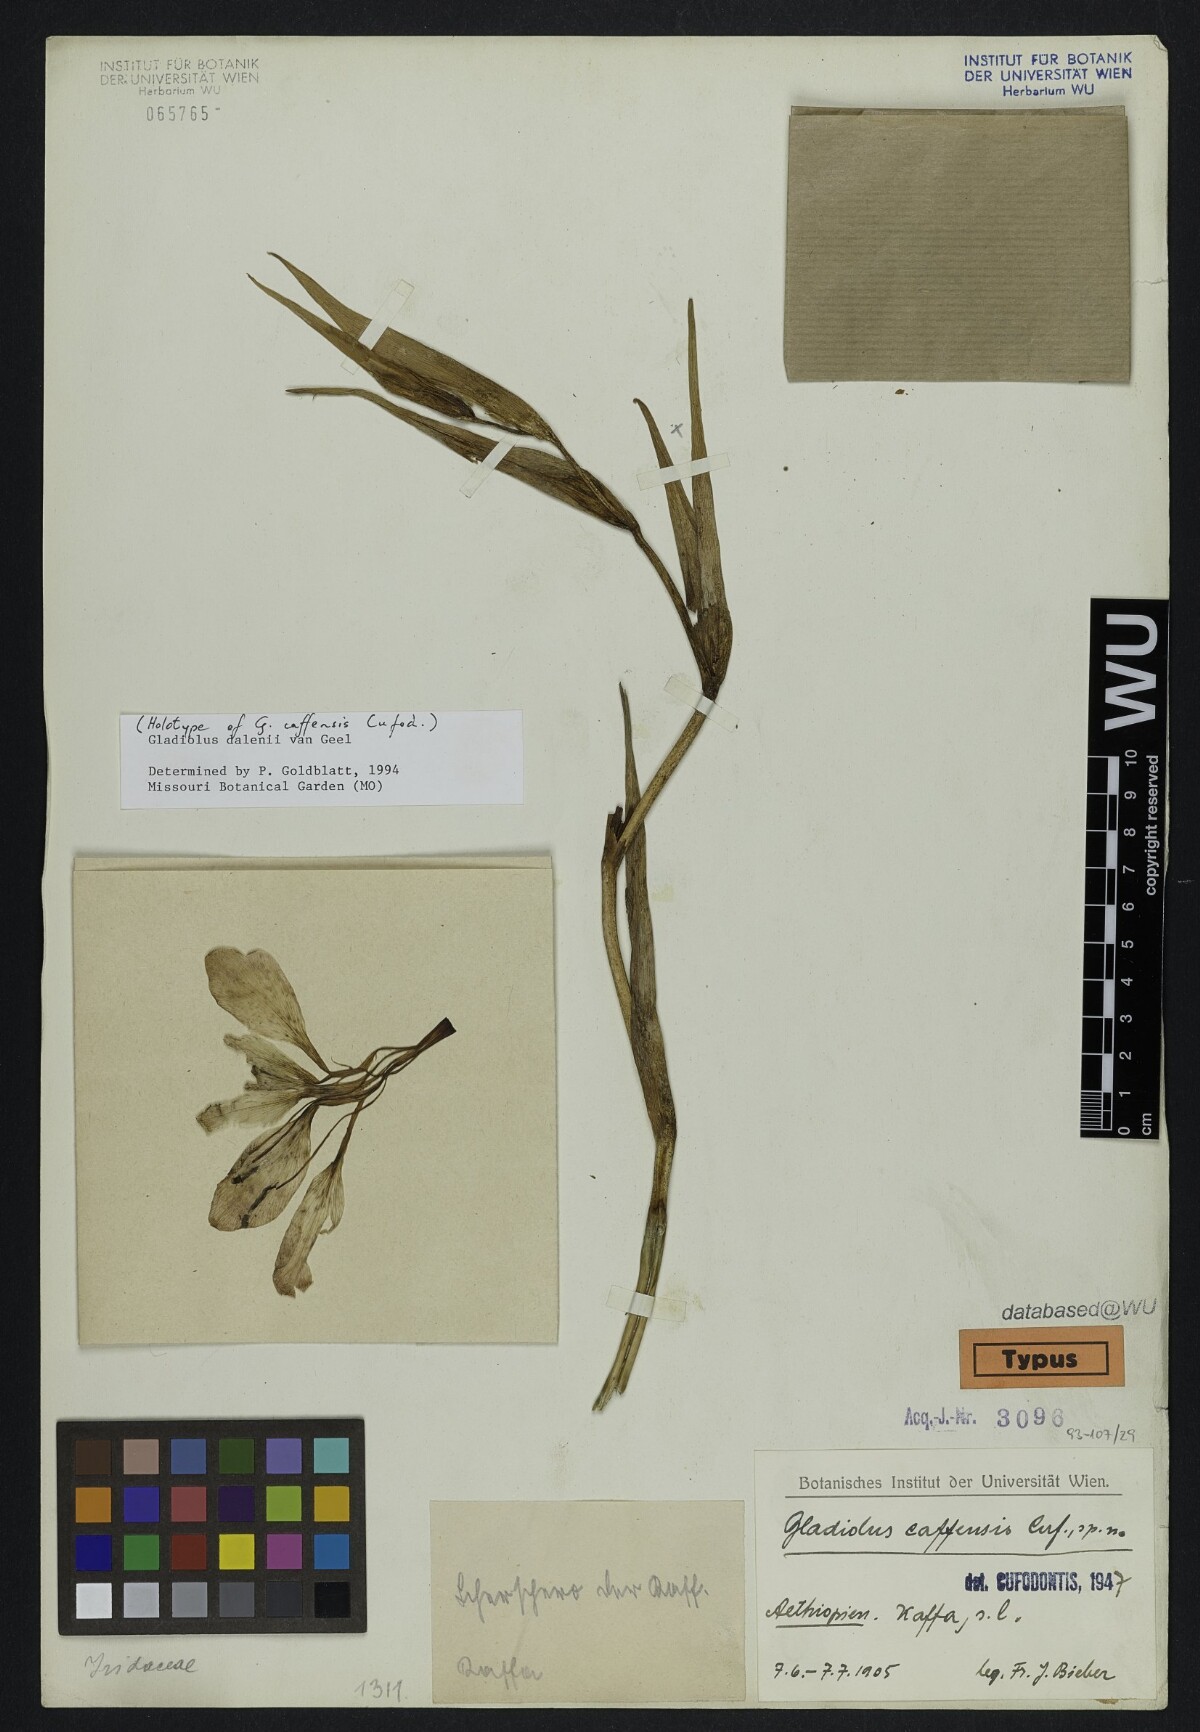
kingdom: Plantae
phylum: Tracheophyta
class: Liliopsida
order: Asparagales
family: Iridaceae
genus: Gladiolus
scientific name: Gladiolus dalenii
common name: Cornflag
